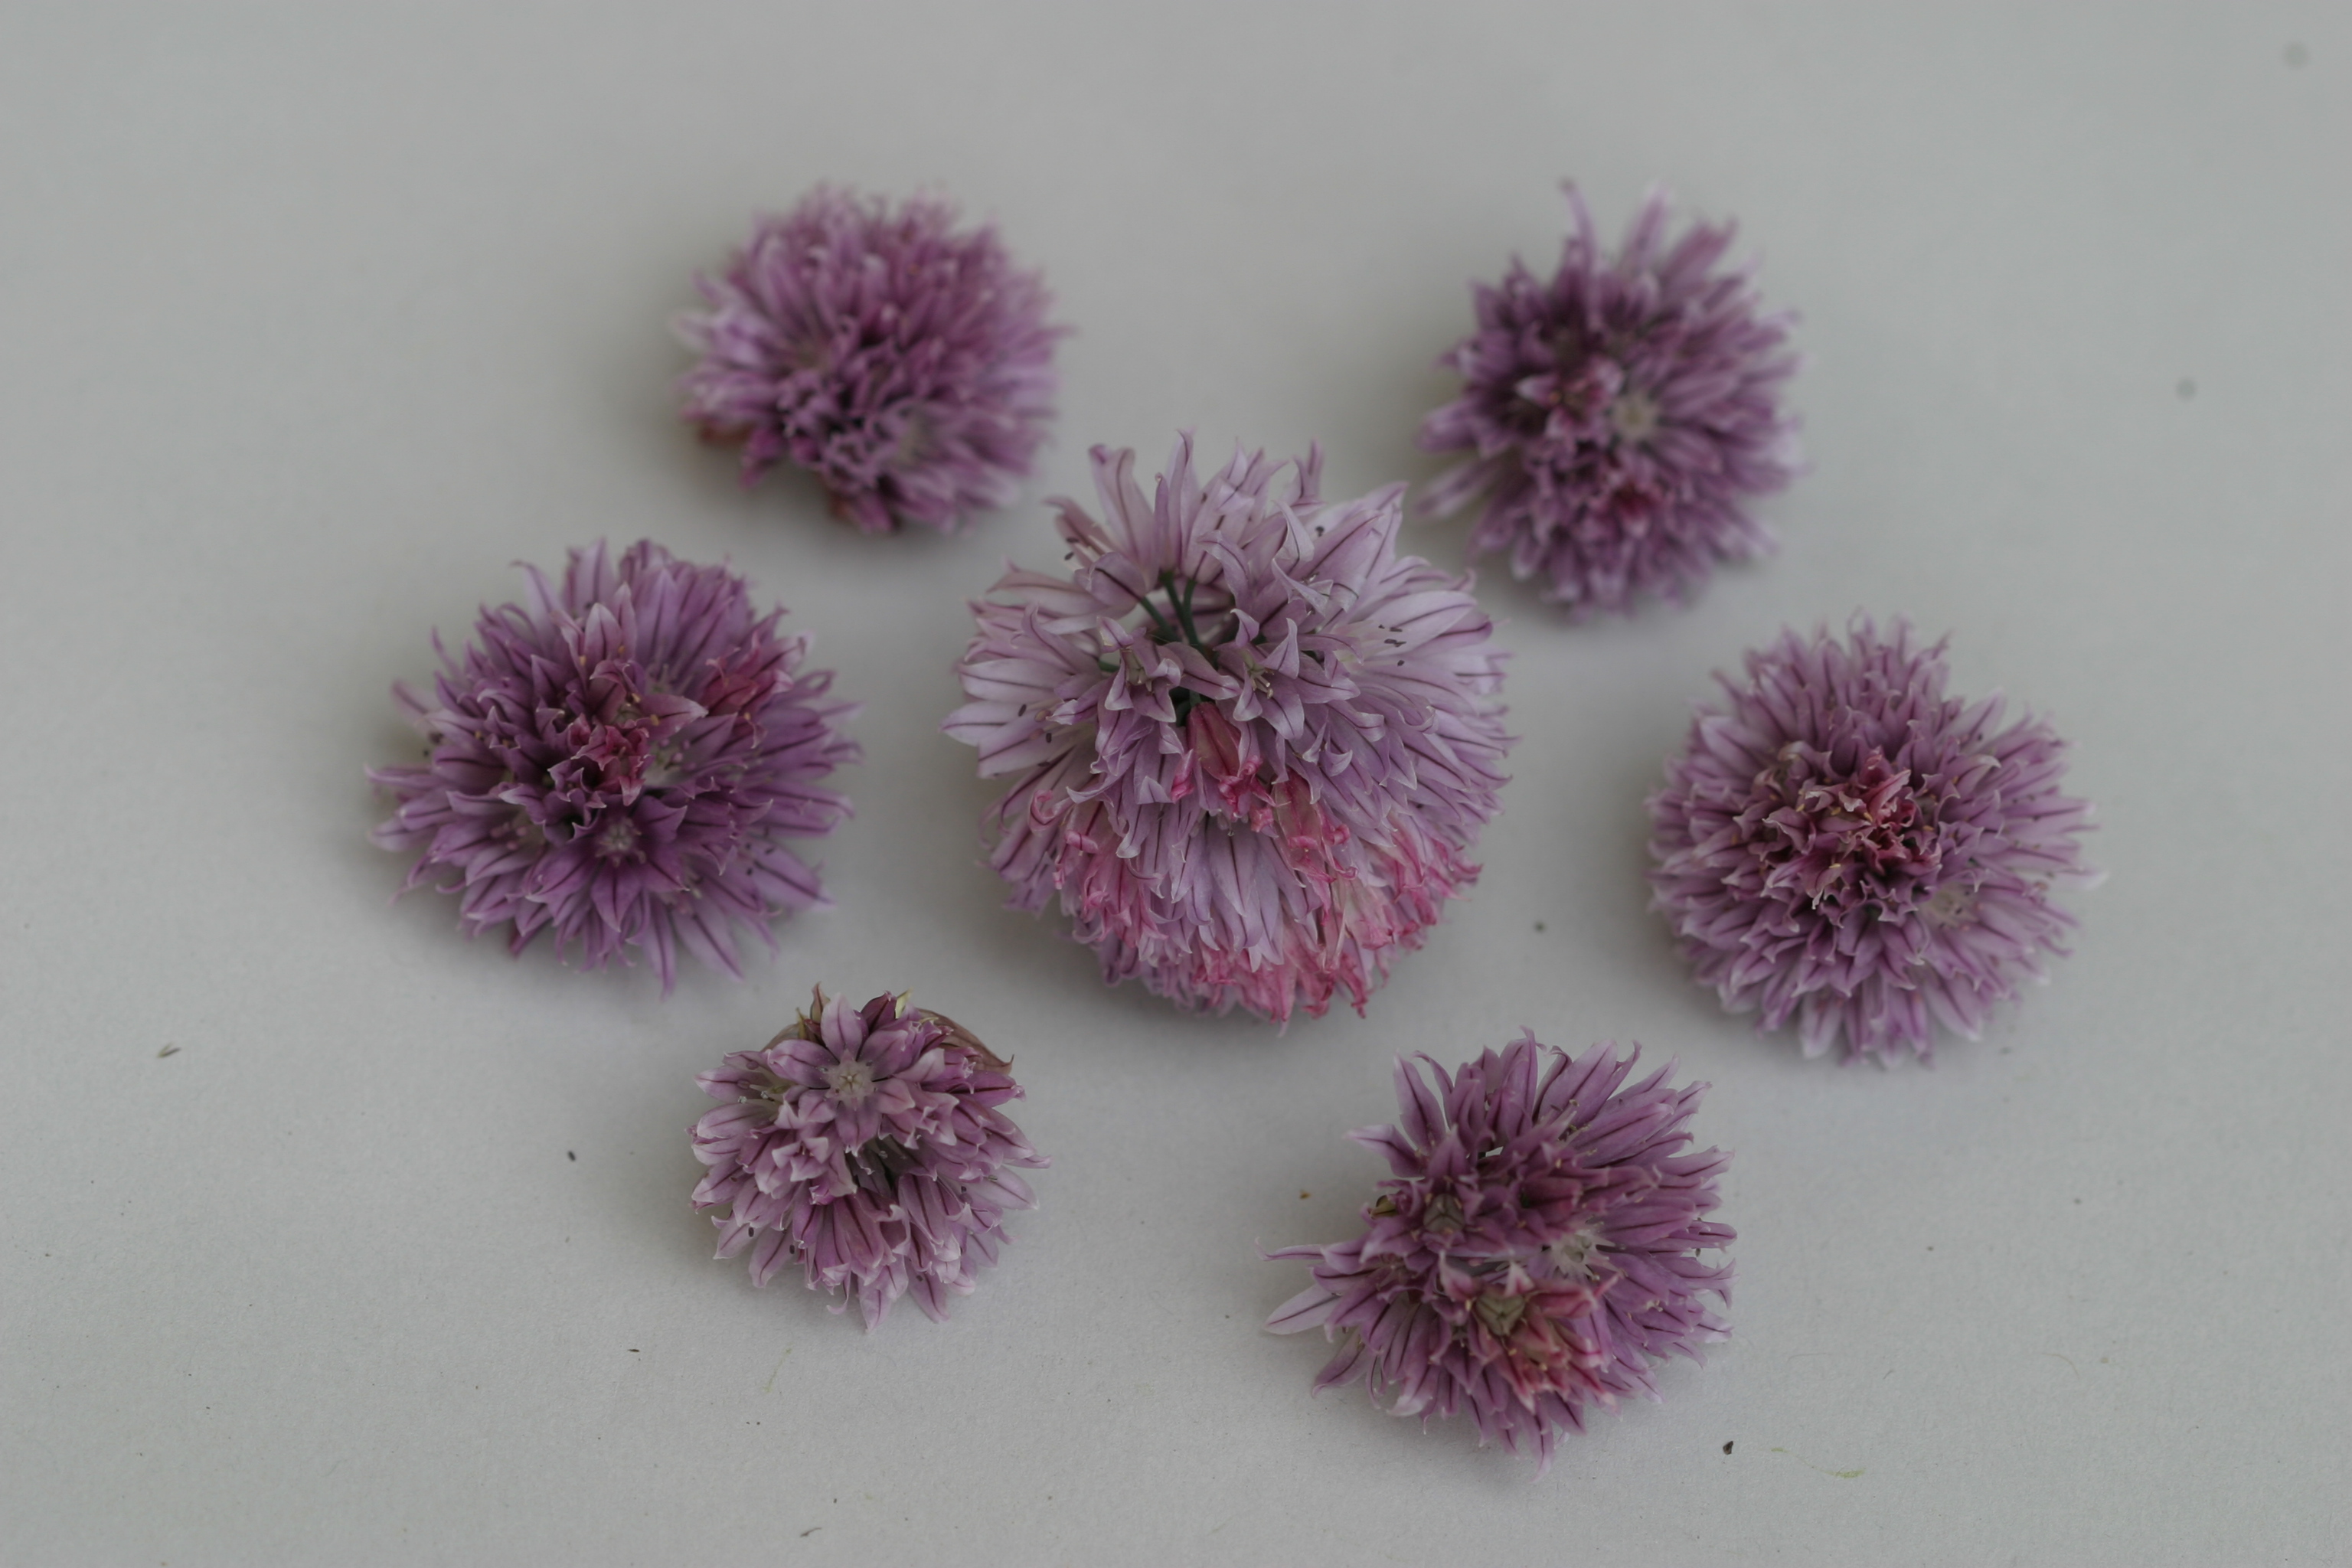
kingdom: Plantae
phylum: Tracheophyta
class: Liliopsida
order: Asparagales
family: Amaryllidaceae
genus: Allium
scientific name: Allium schoenoprasum
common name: Chives
